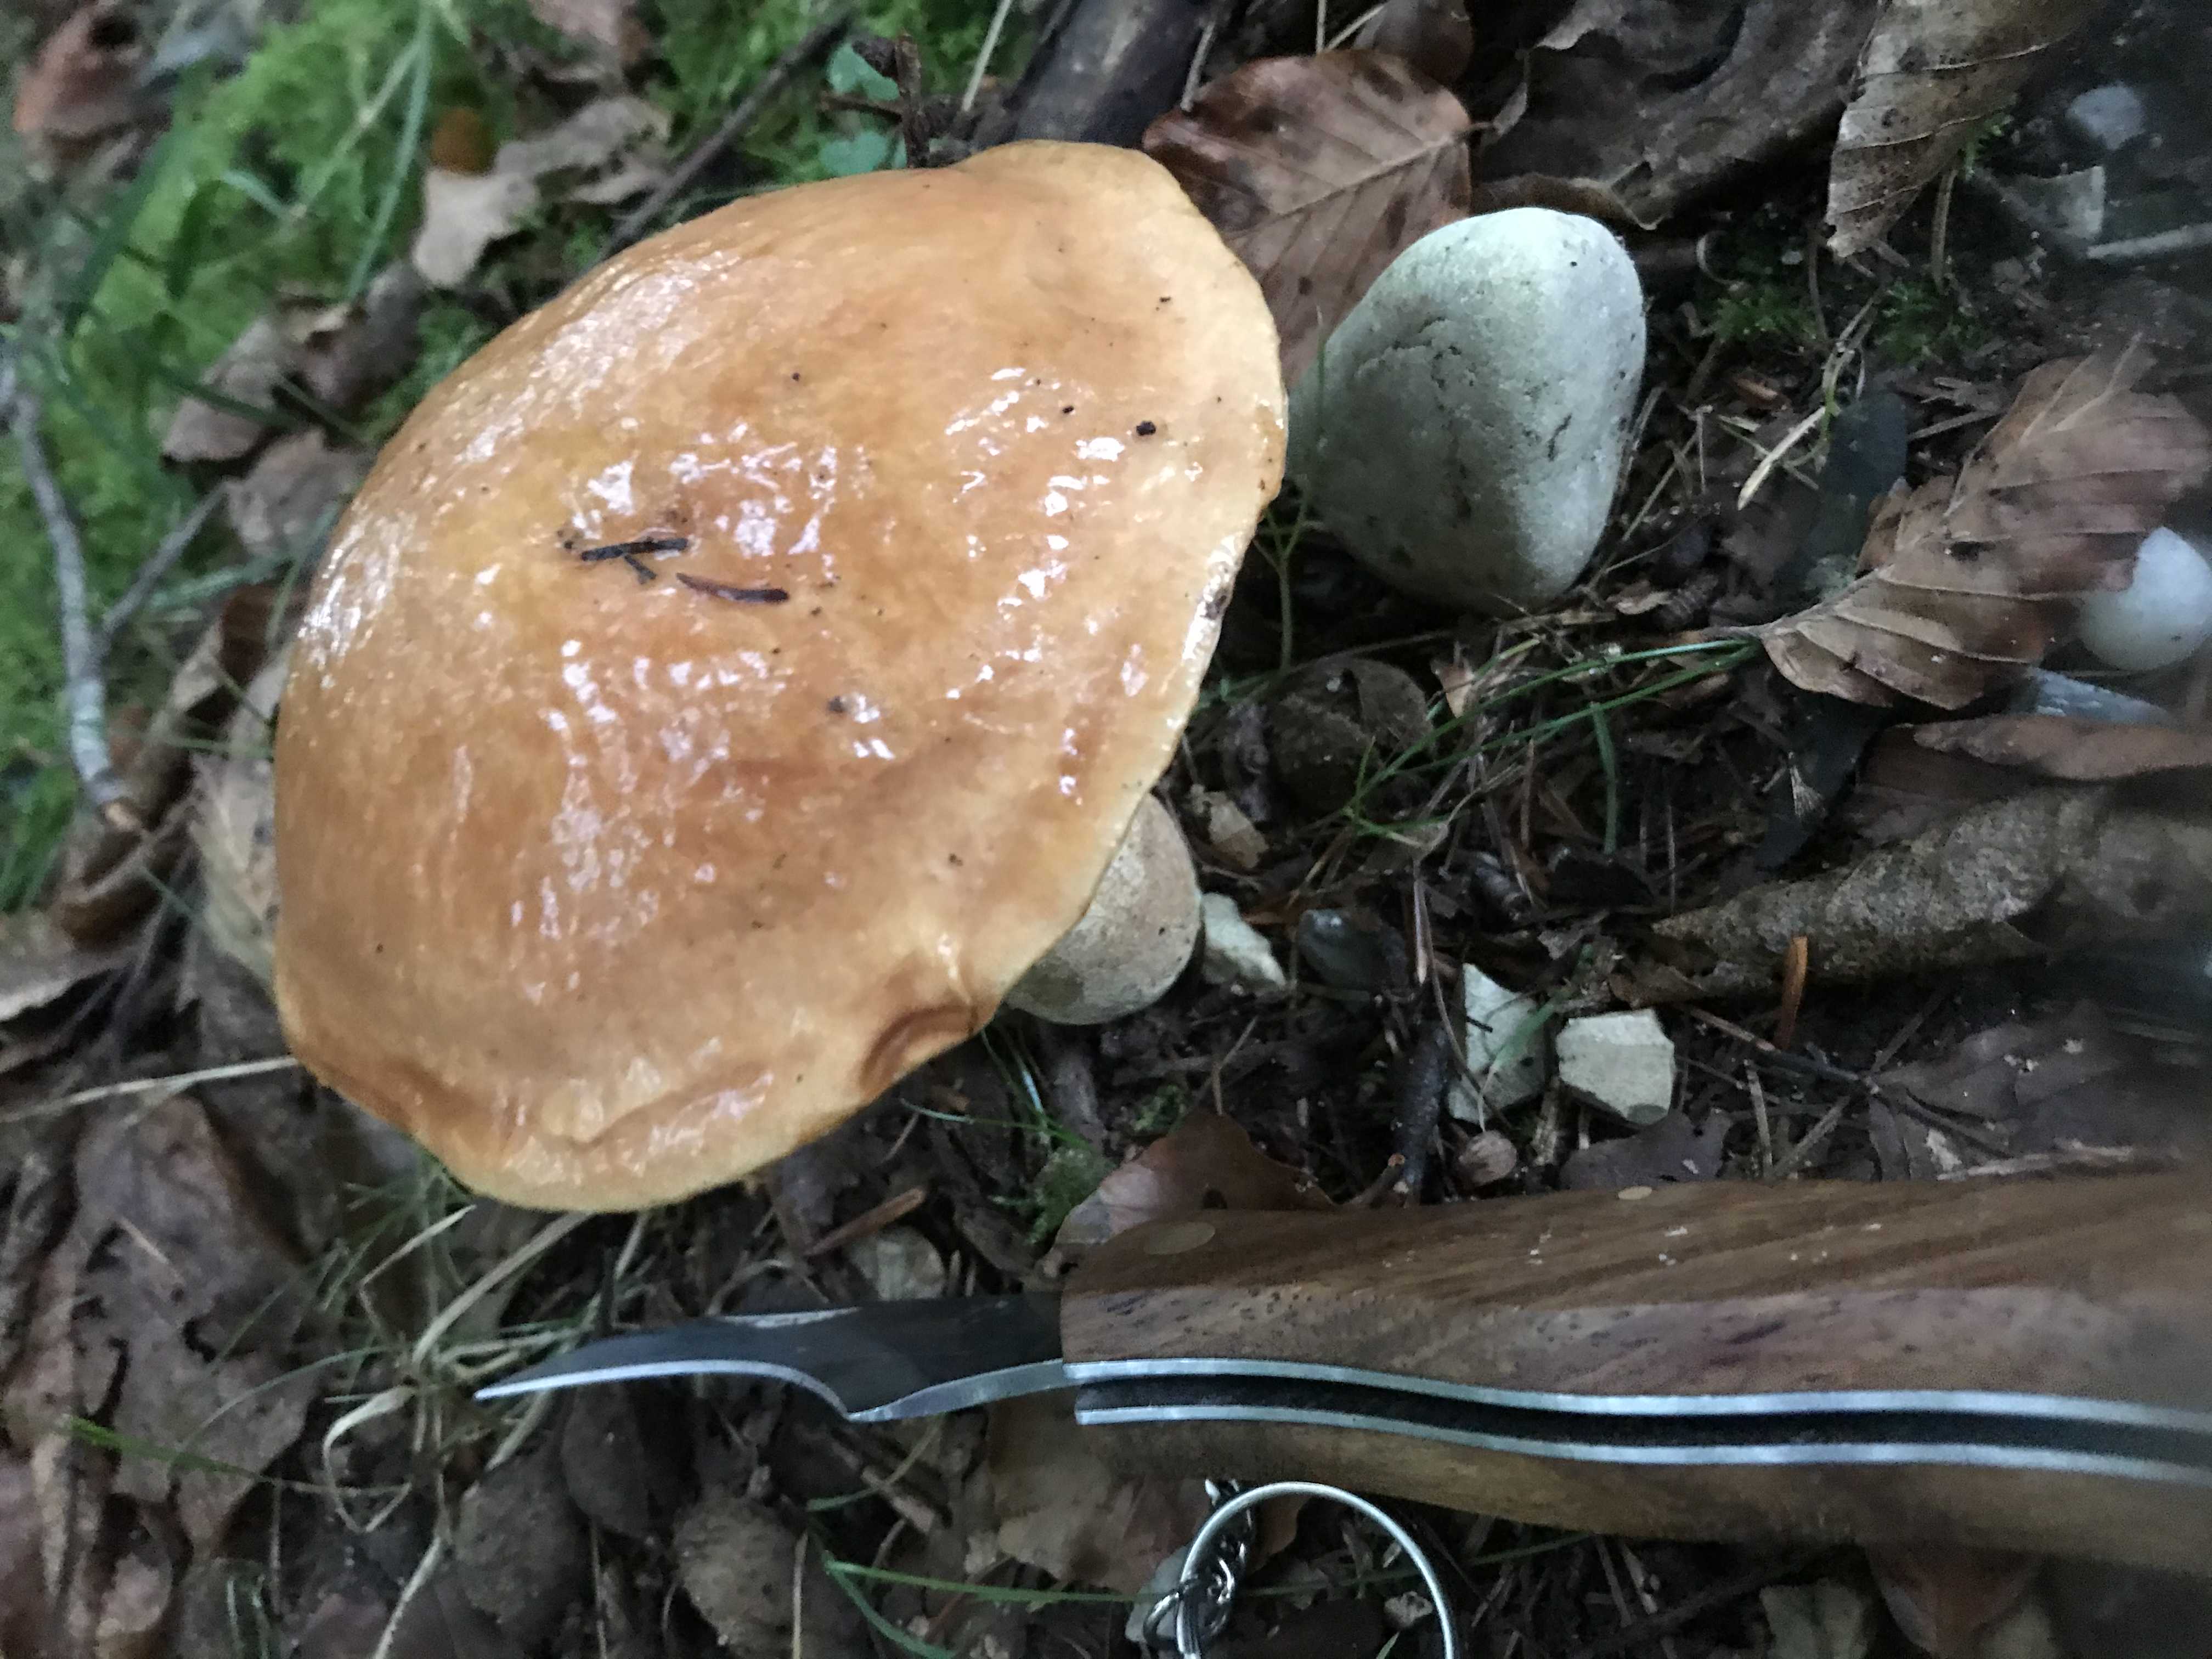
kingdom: Fungi
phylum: Basidiomycota
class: Agaricomycetes
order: Boletales
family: Suillaceae
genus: Suillus
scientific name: Suillus grevillei
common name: lærke-slimrørhat
